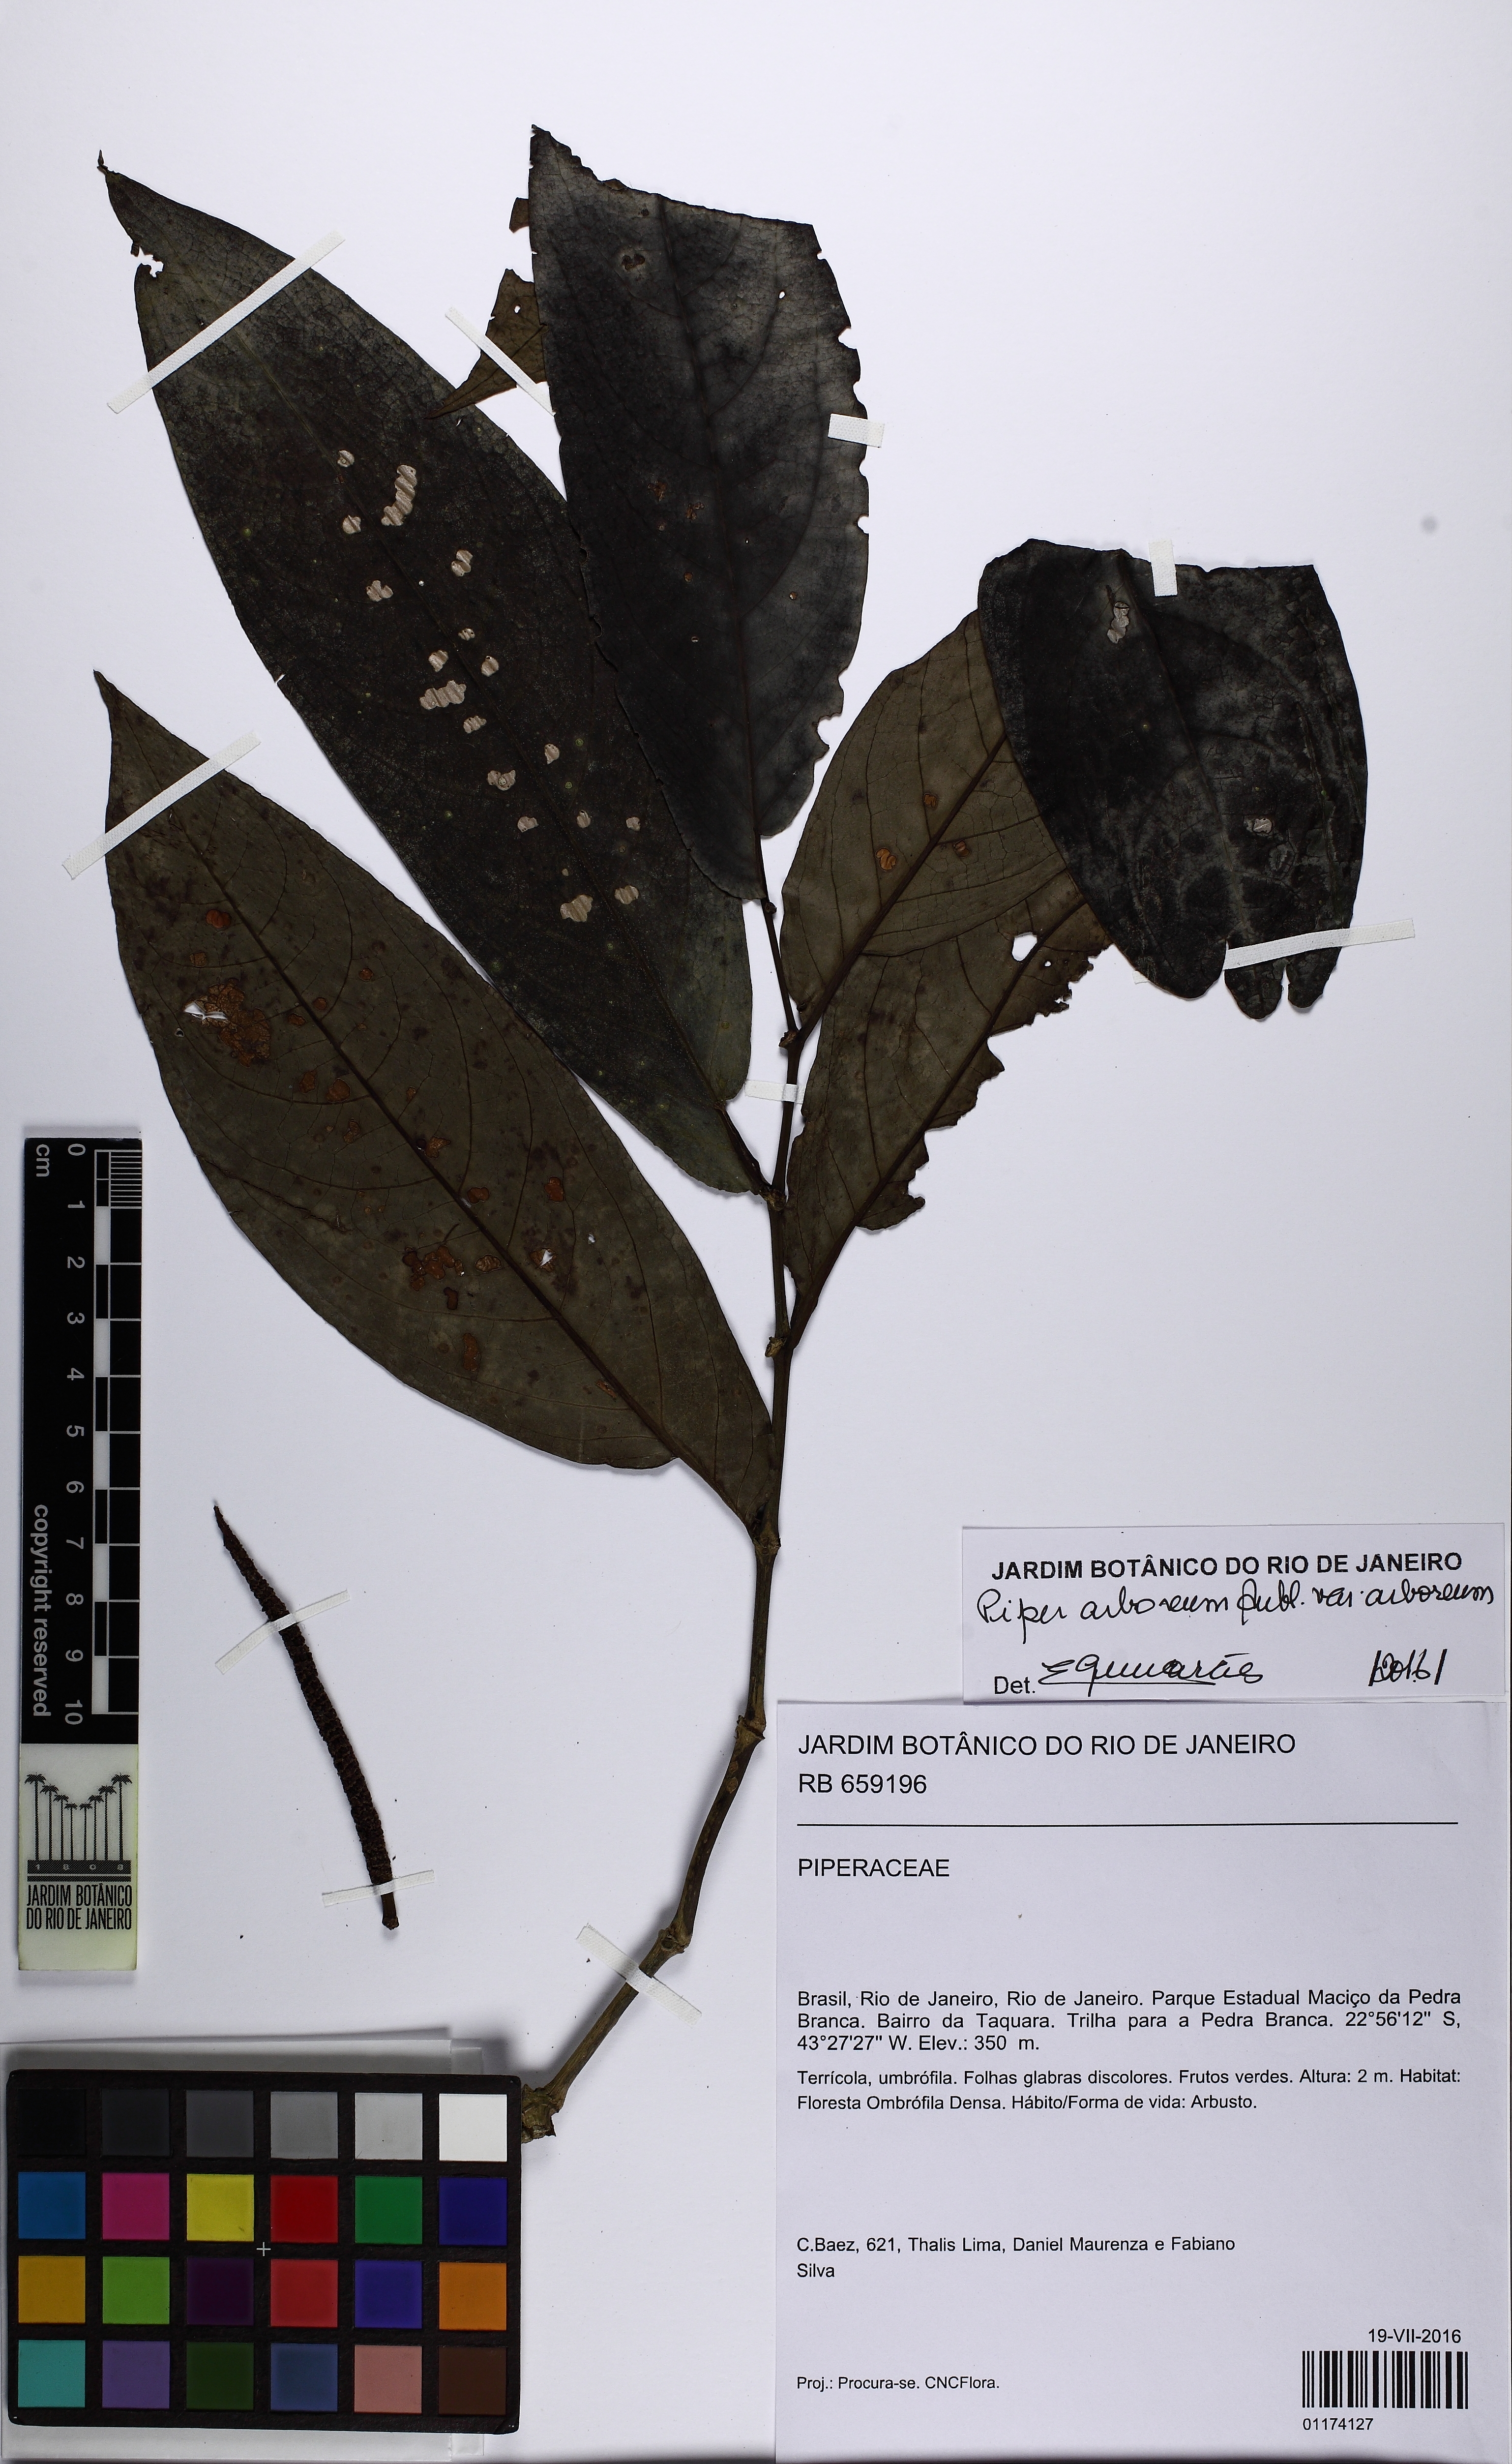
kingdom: Plantae
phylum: Tracheophyta
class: Magnoliopsida
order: Piperales
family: Piperaceae
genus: Piper
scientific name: Piper arboreum
